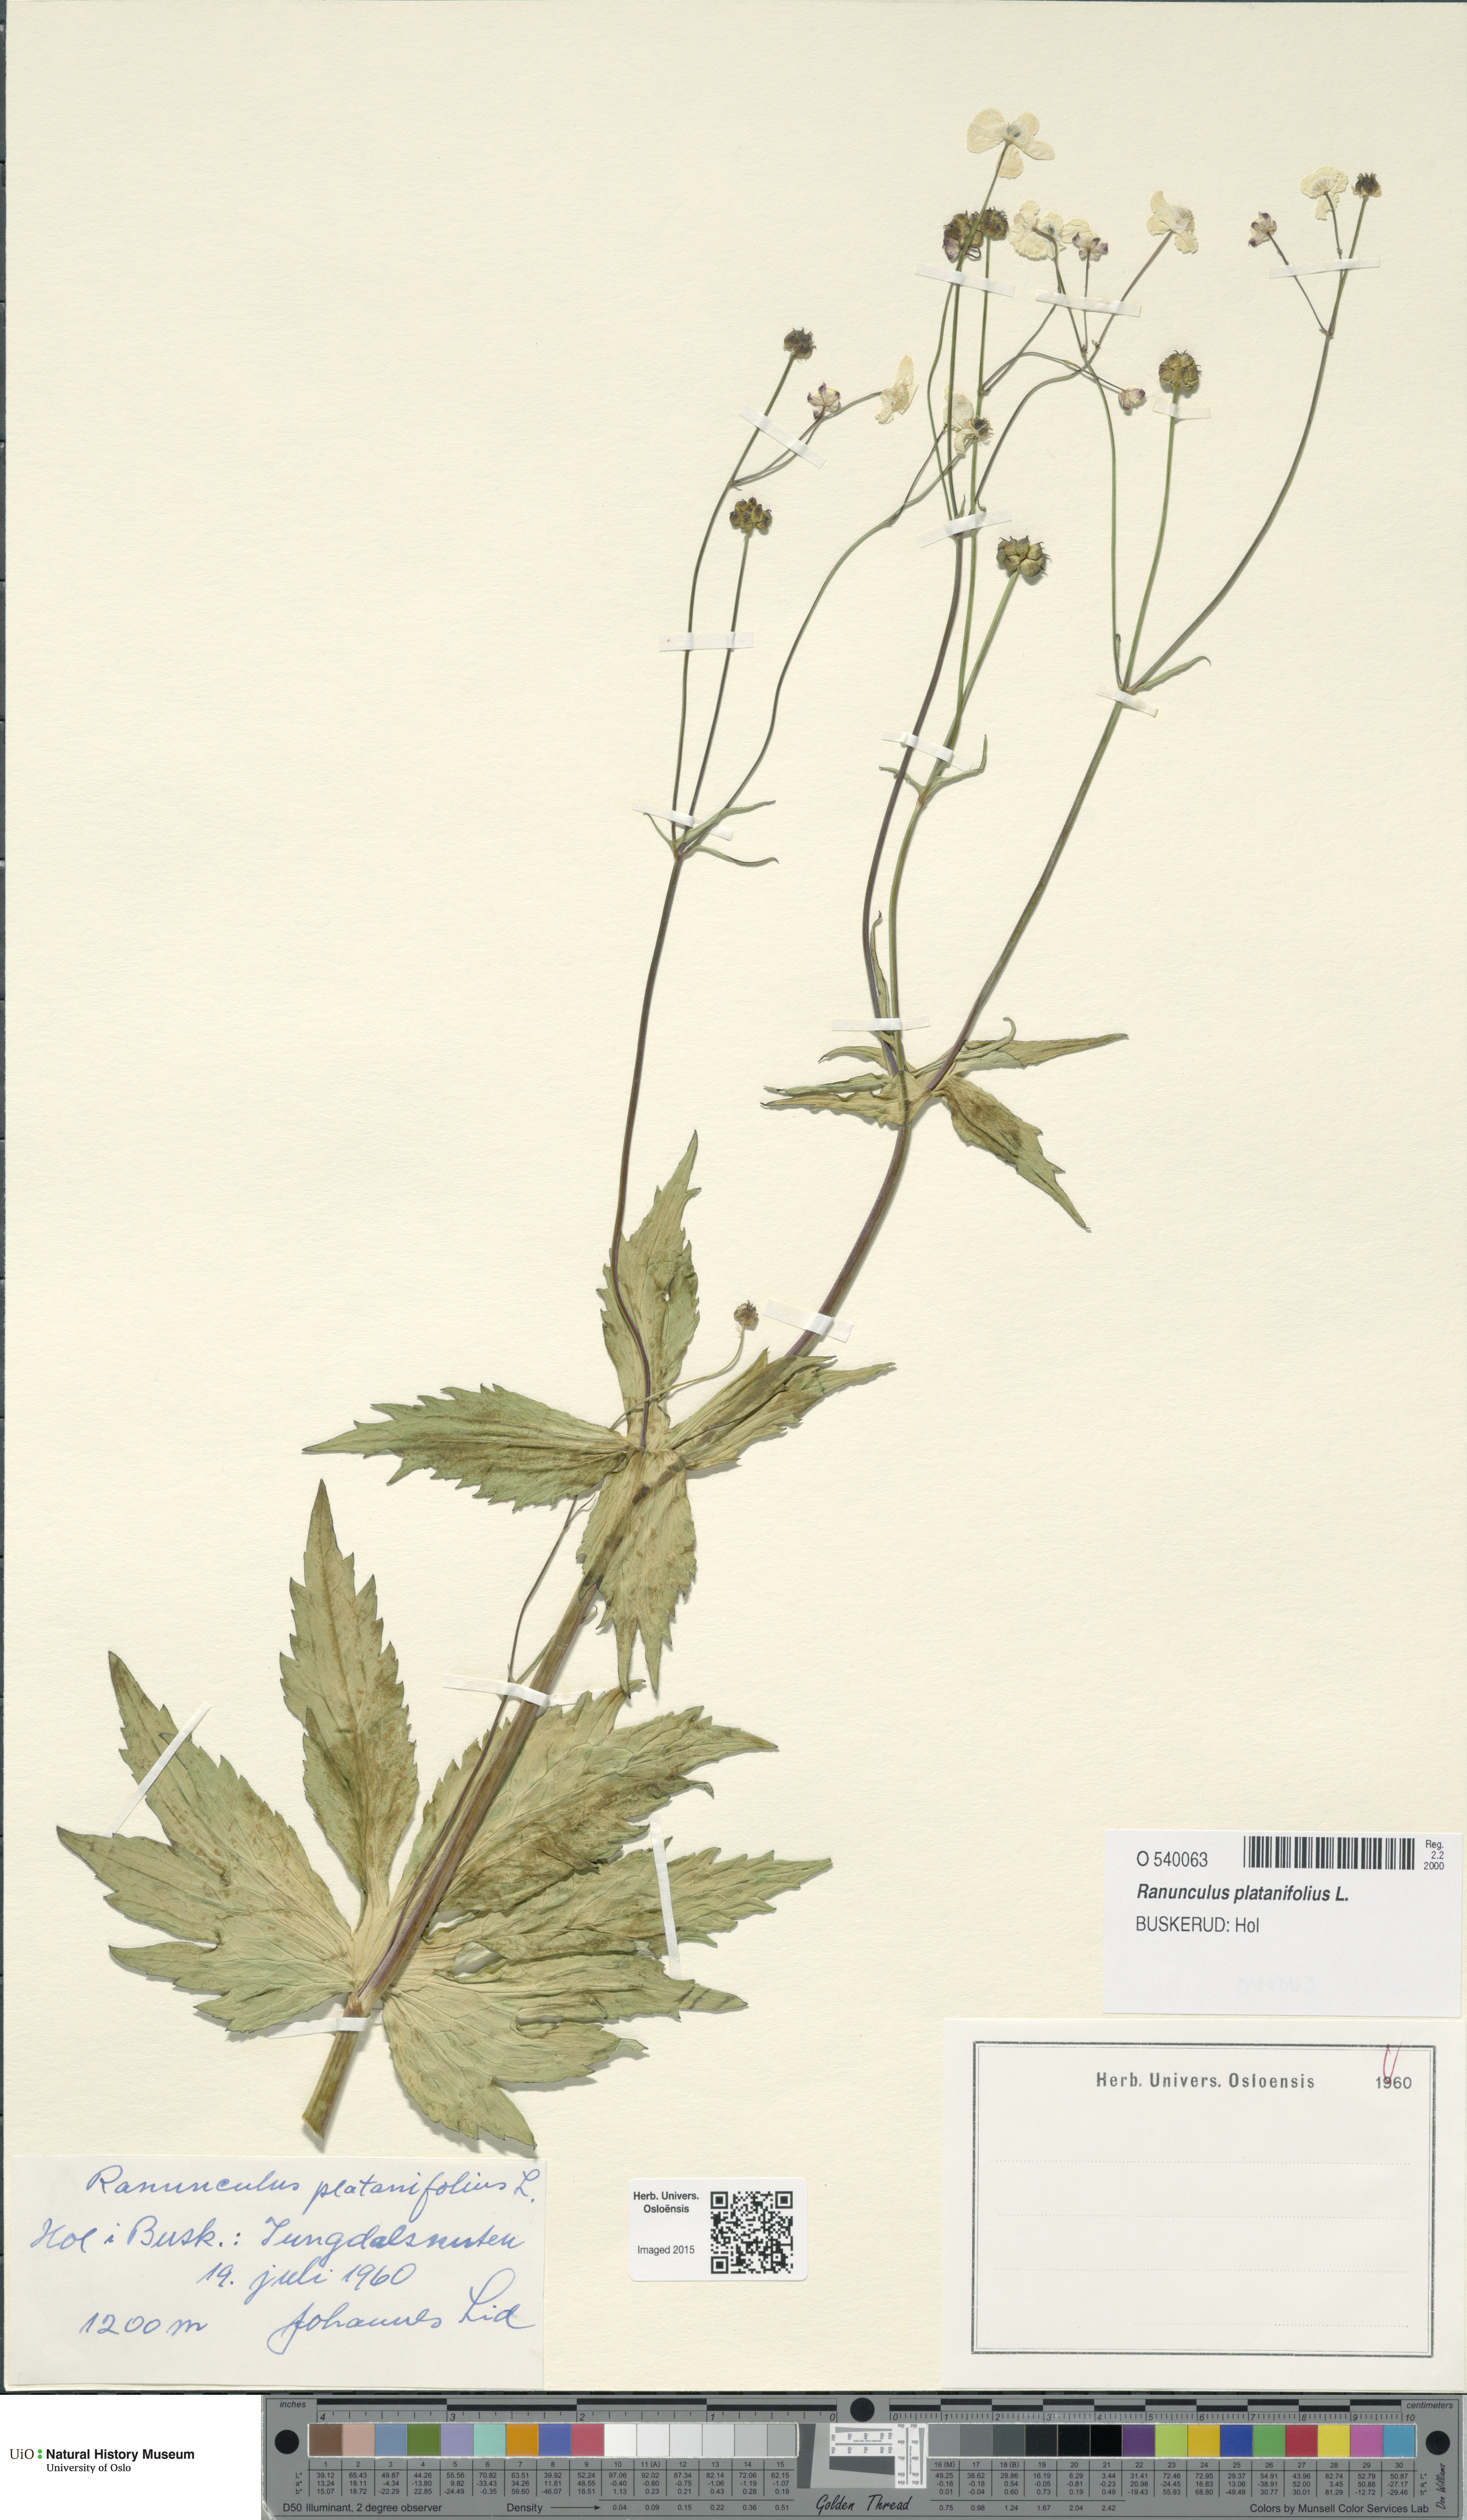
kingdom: Plantae
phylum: Tracheophyta
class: Magnoliopsida
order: Ranunculales
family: Ranunculaceae
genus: Ranunculus
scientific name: Ranunculus platanifolius
